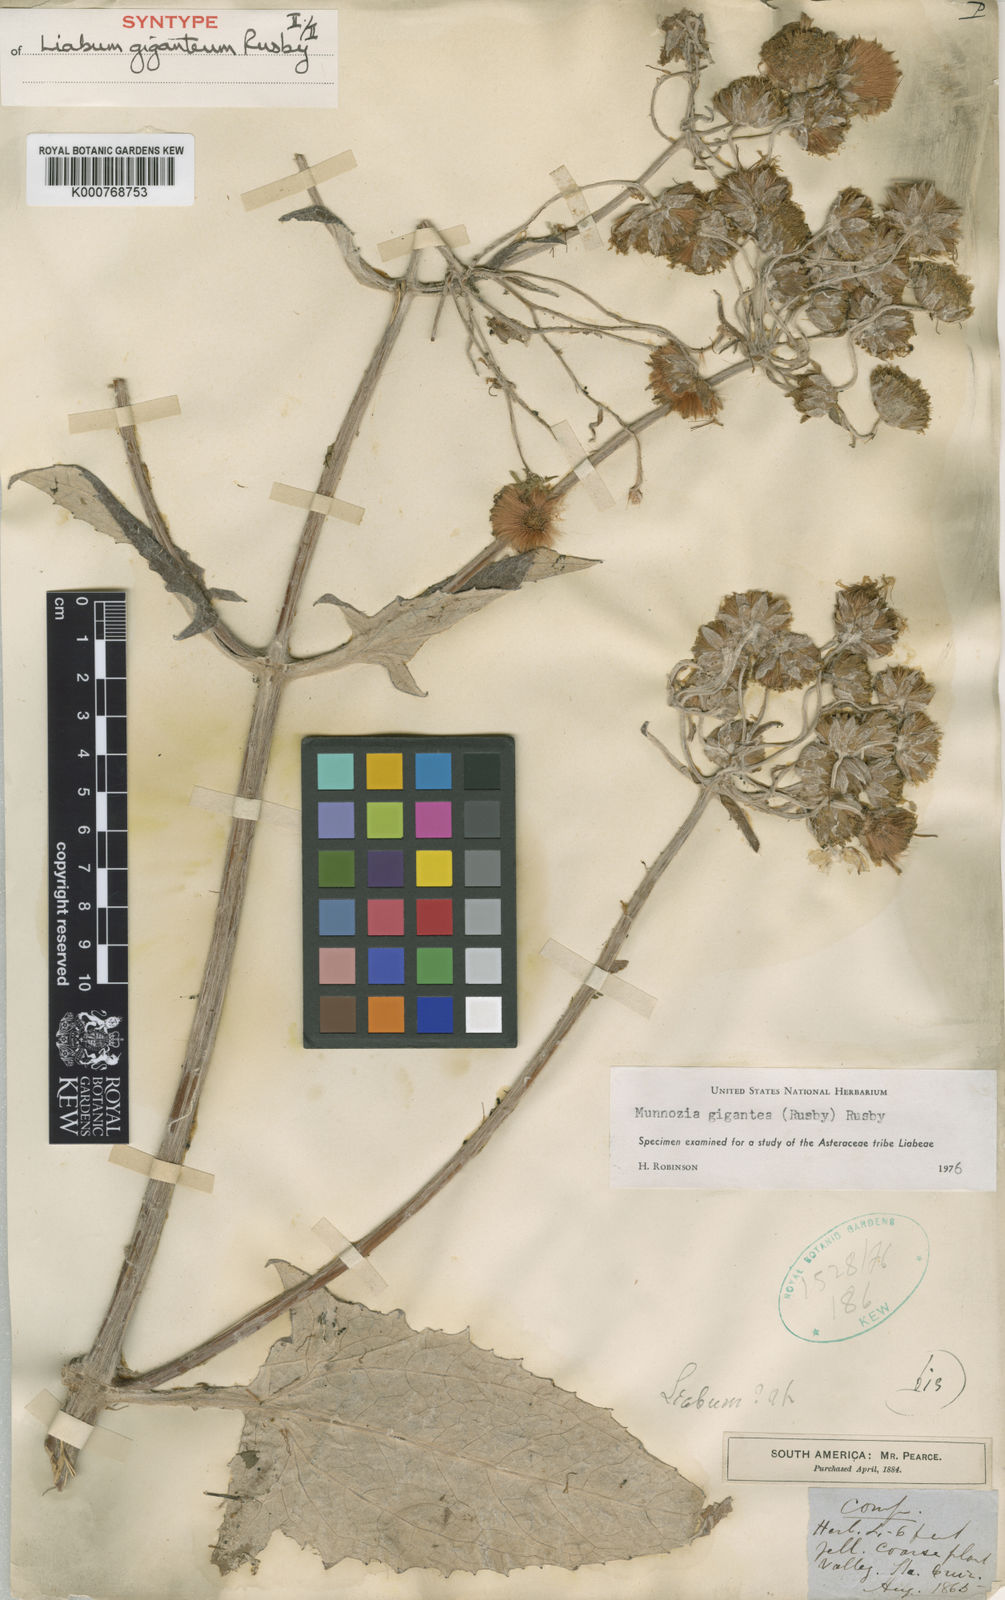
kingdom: Plantae
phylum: Tracheophyta
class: Magnoliopsida
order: Asterales
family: Asteraceae
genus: Munnozia
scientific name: Munnozia gigantea
